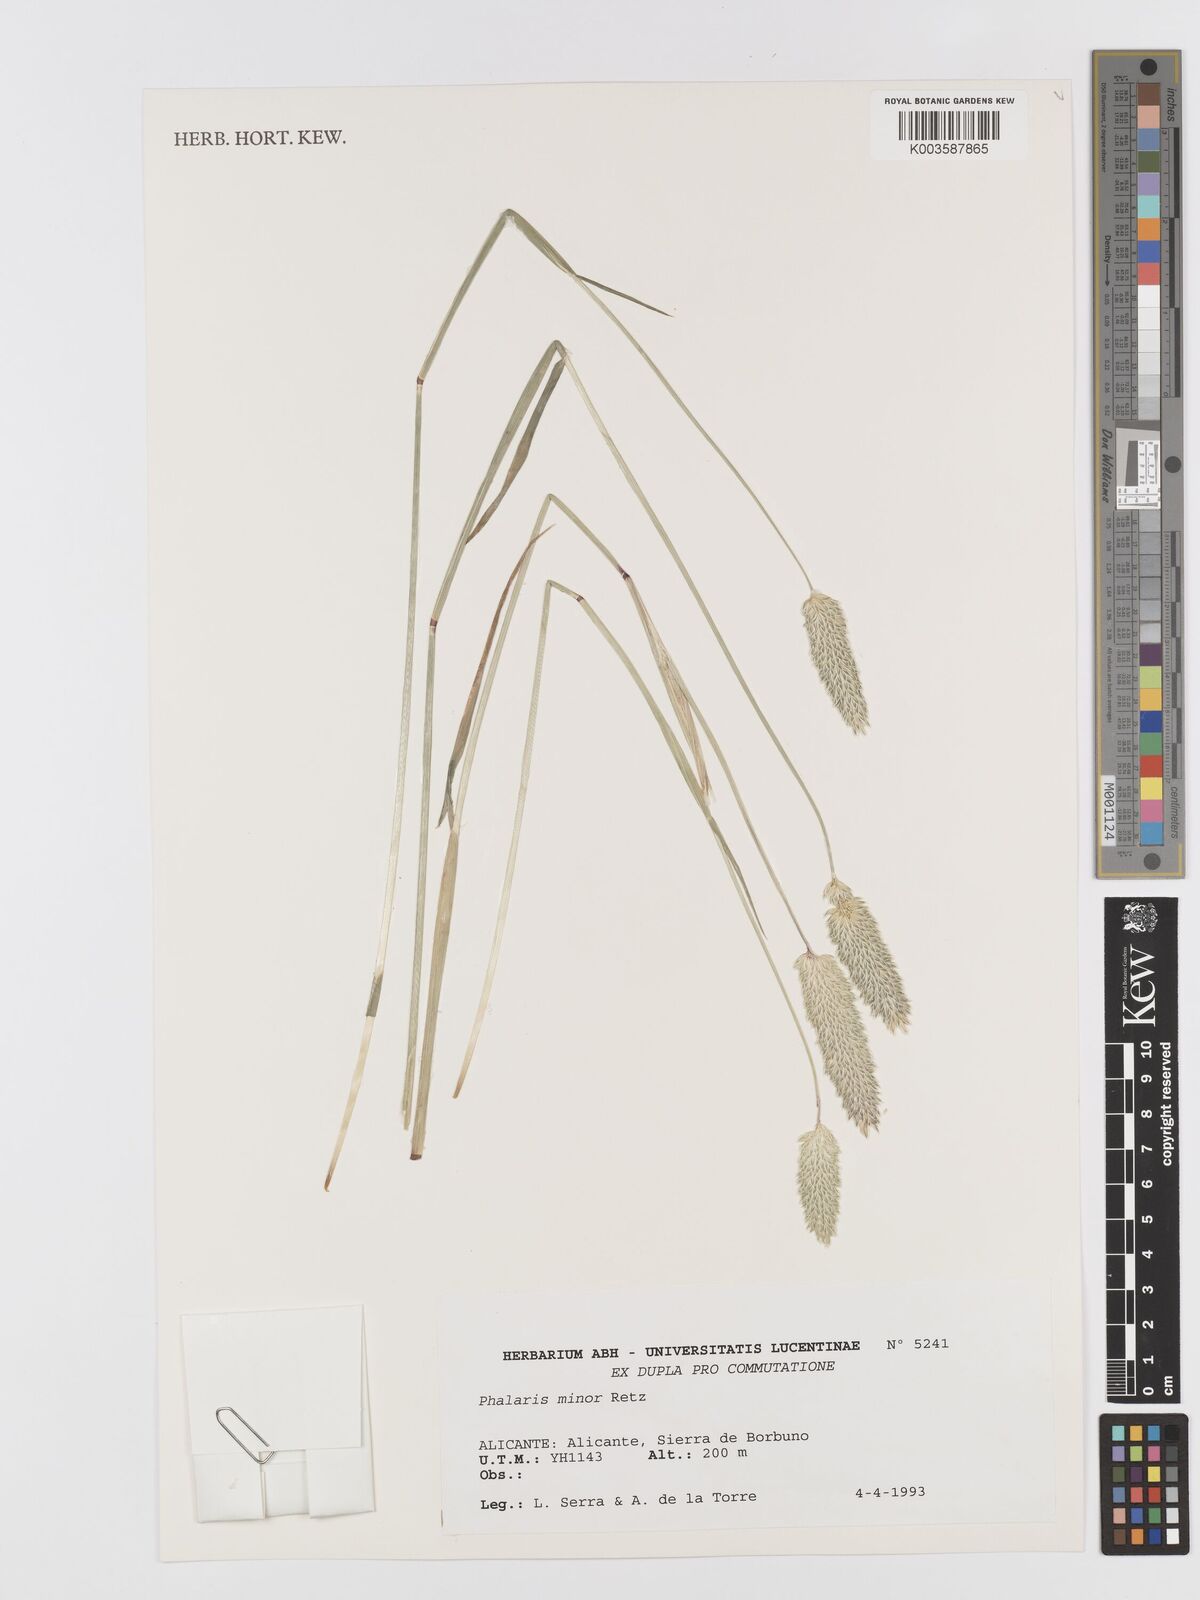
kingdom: Plantae
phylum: Tracheophyta
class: Liliopsida
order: Poales
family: Poaceae
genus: Phalaris
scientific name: Phalaris minor
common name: Littleseed canarygrass
